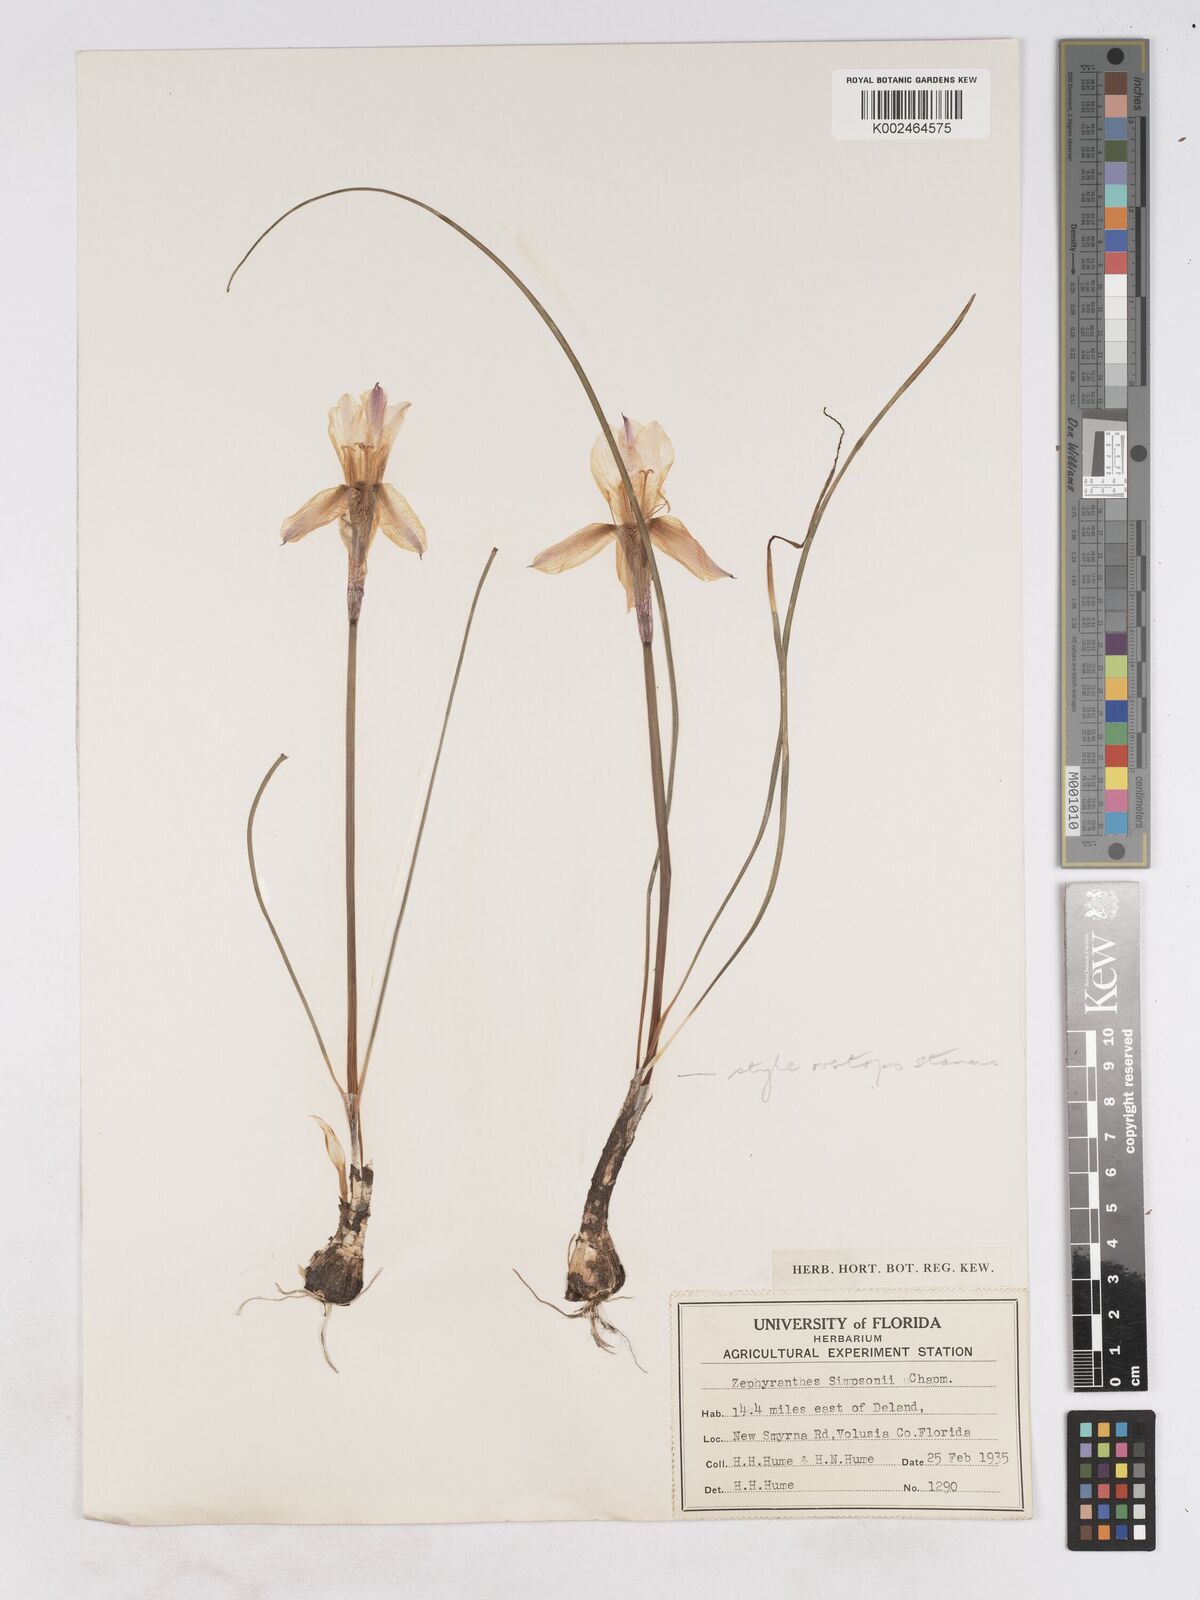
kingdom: Plantae
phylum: Tracheophyta
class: Liliopsida
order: Asparagales
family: Amaryllidaceae
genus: Zephyranthes
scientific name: Zephyranthes simpsonii
